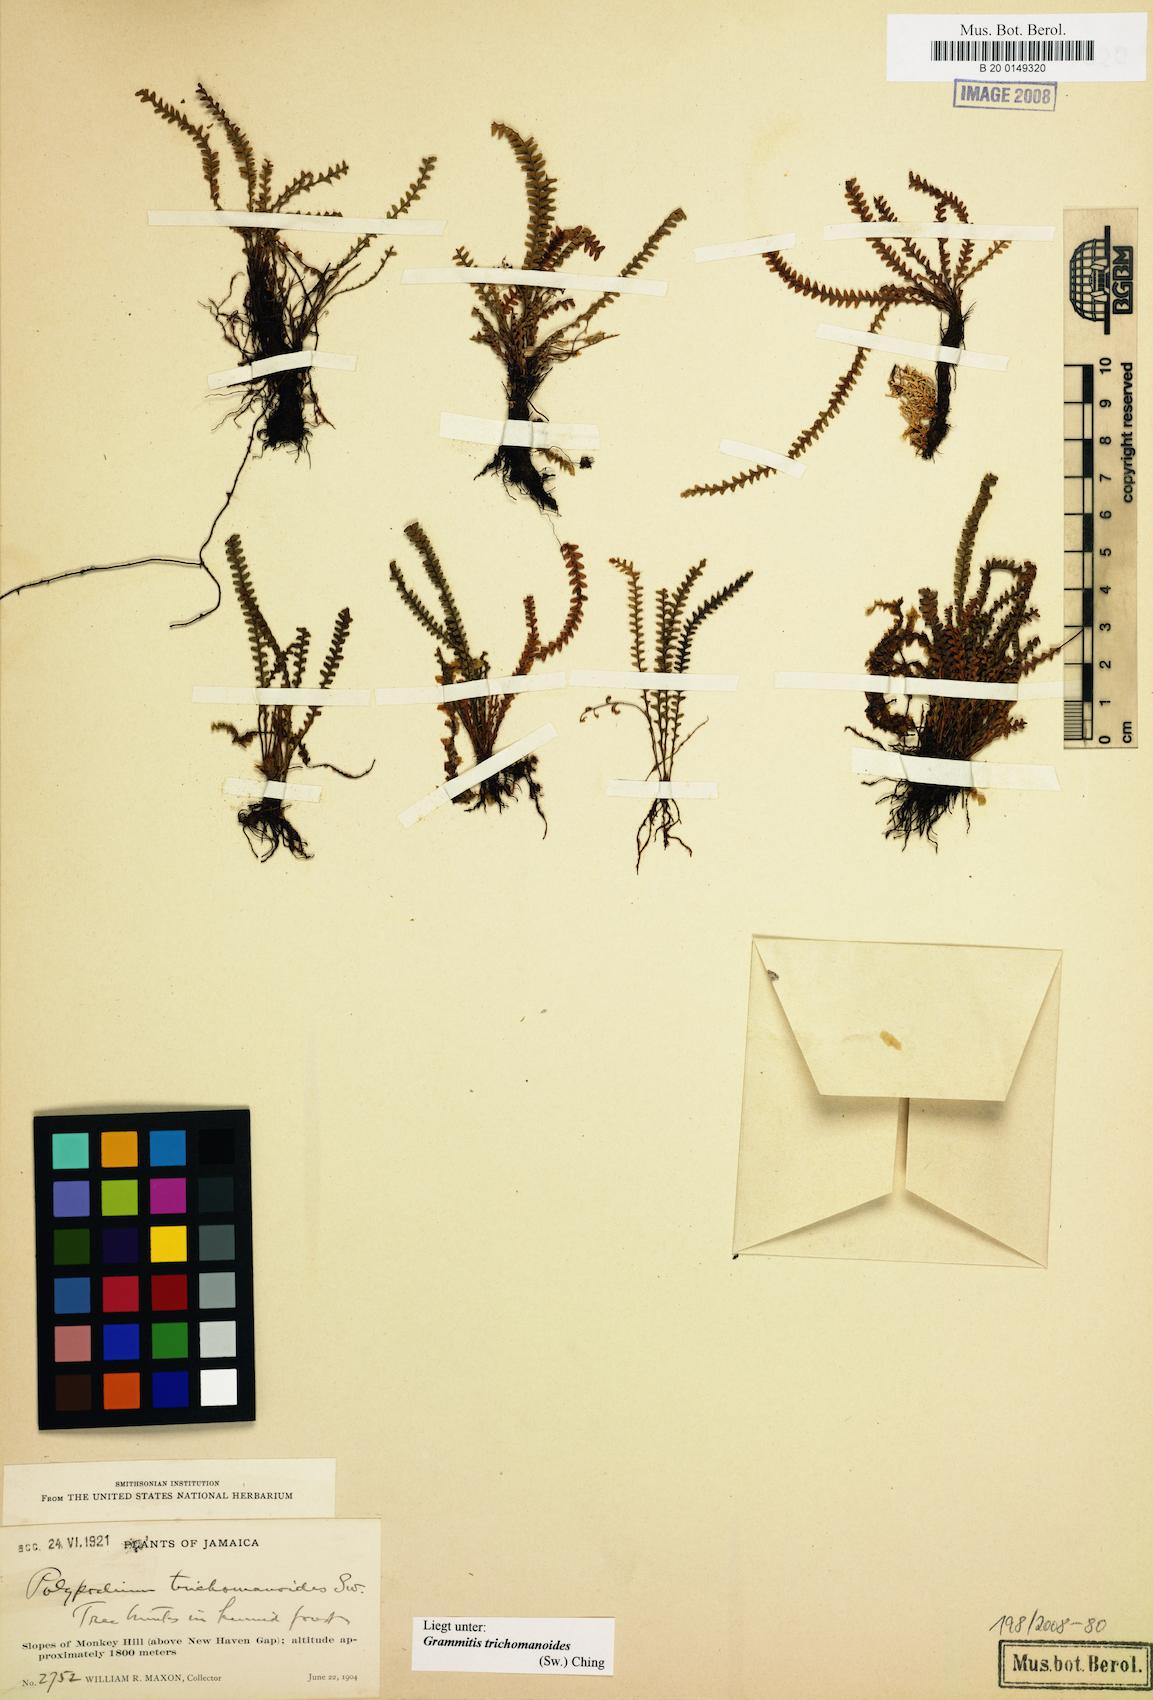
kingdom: Plantae
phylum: Tracheophyta
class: Polypodiopsida
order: Polypodiales
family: Polypodiaceae
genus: Moranopteris
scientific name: Moranopteris trichomanoides
